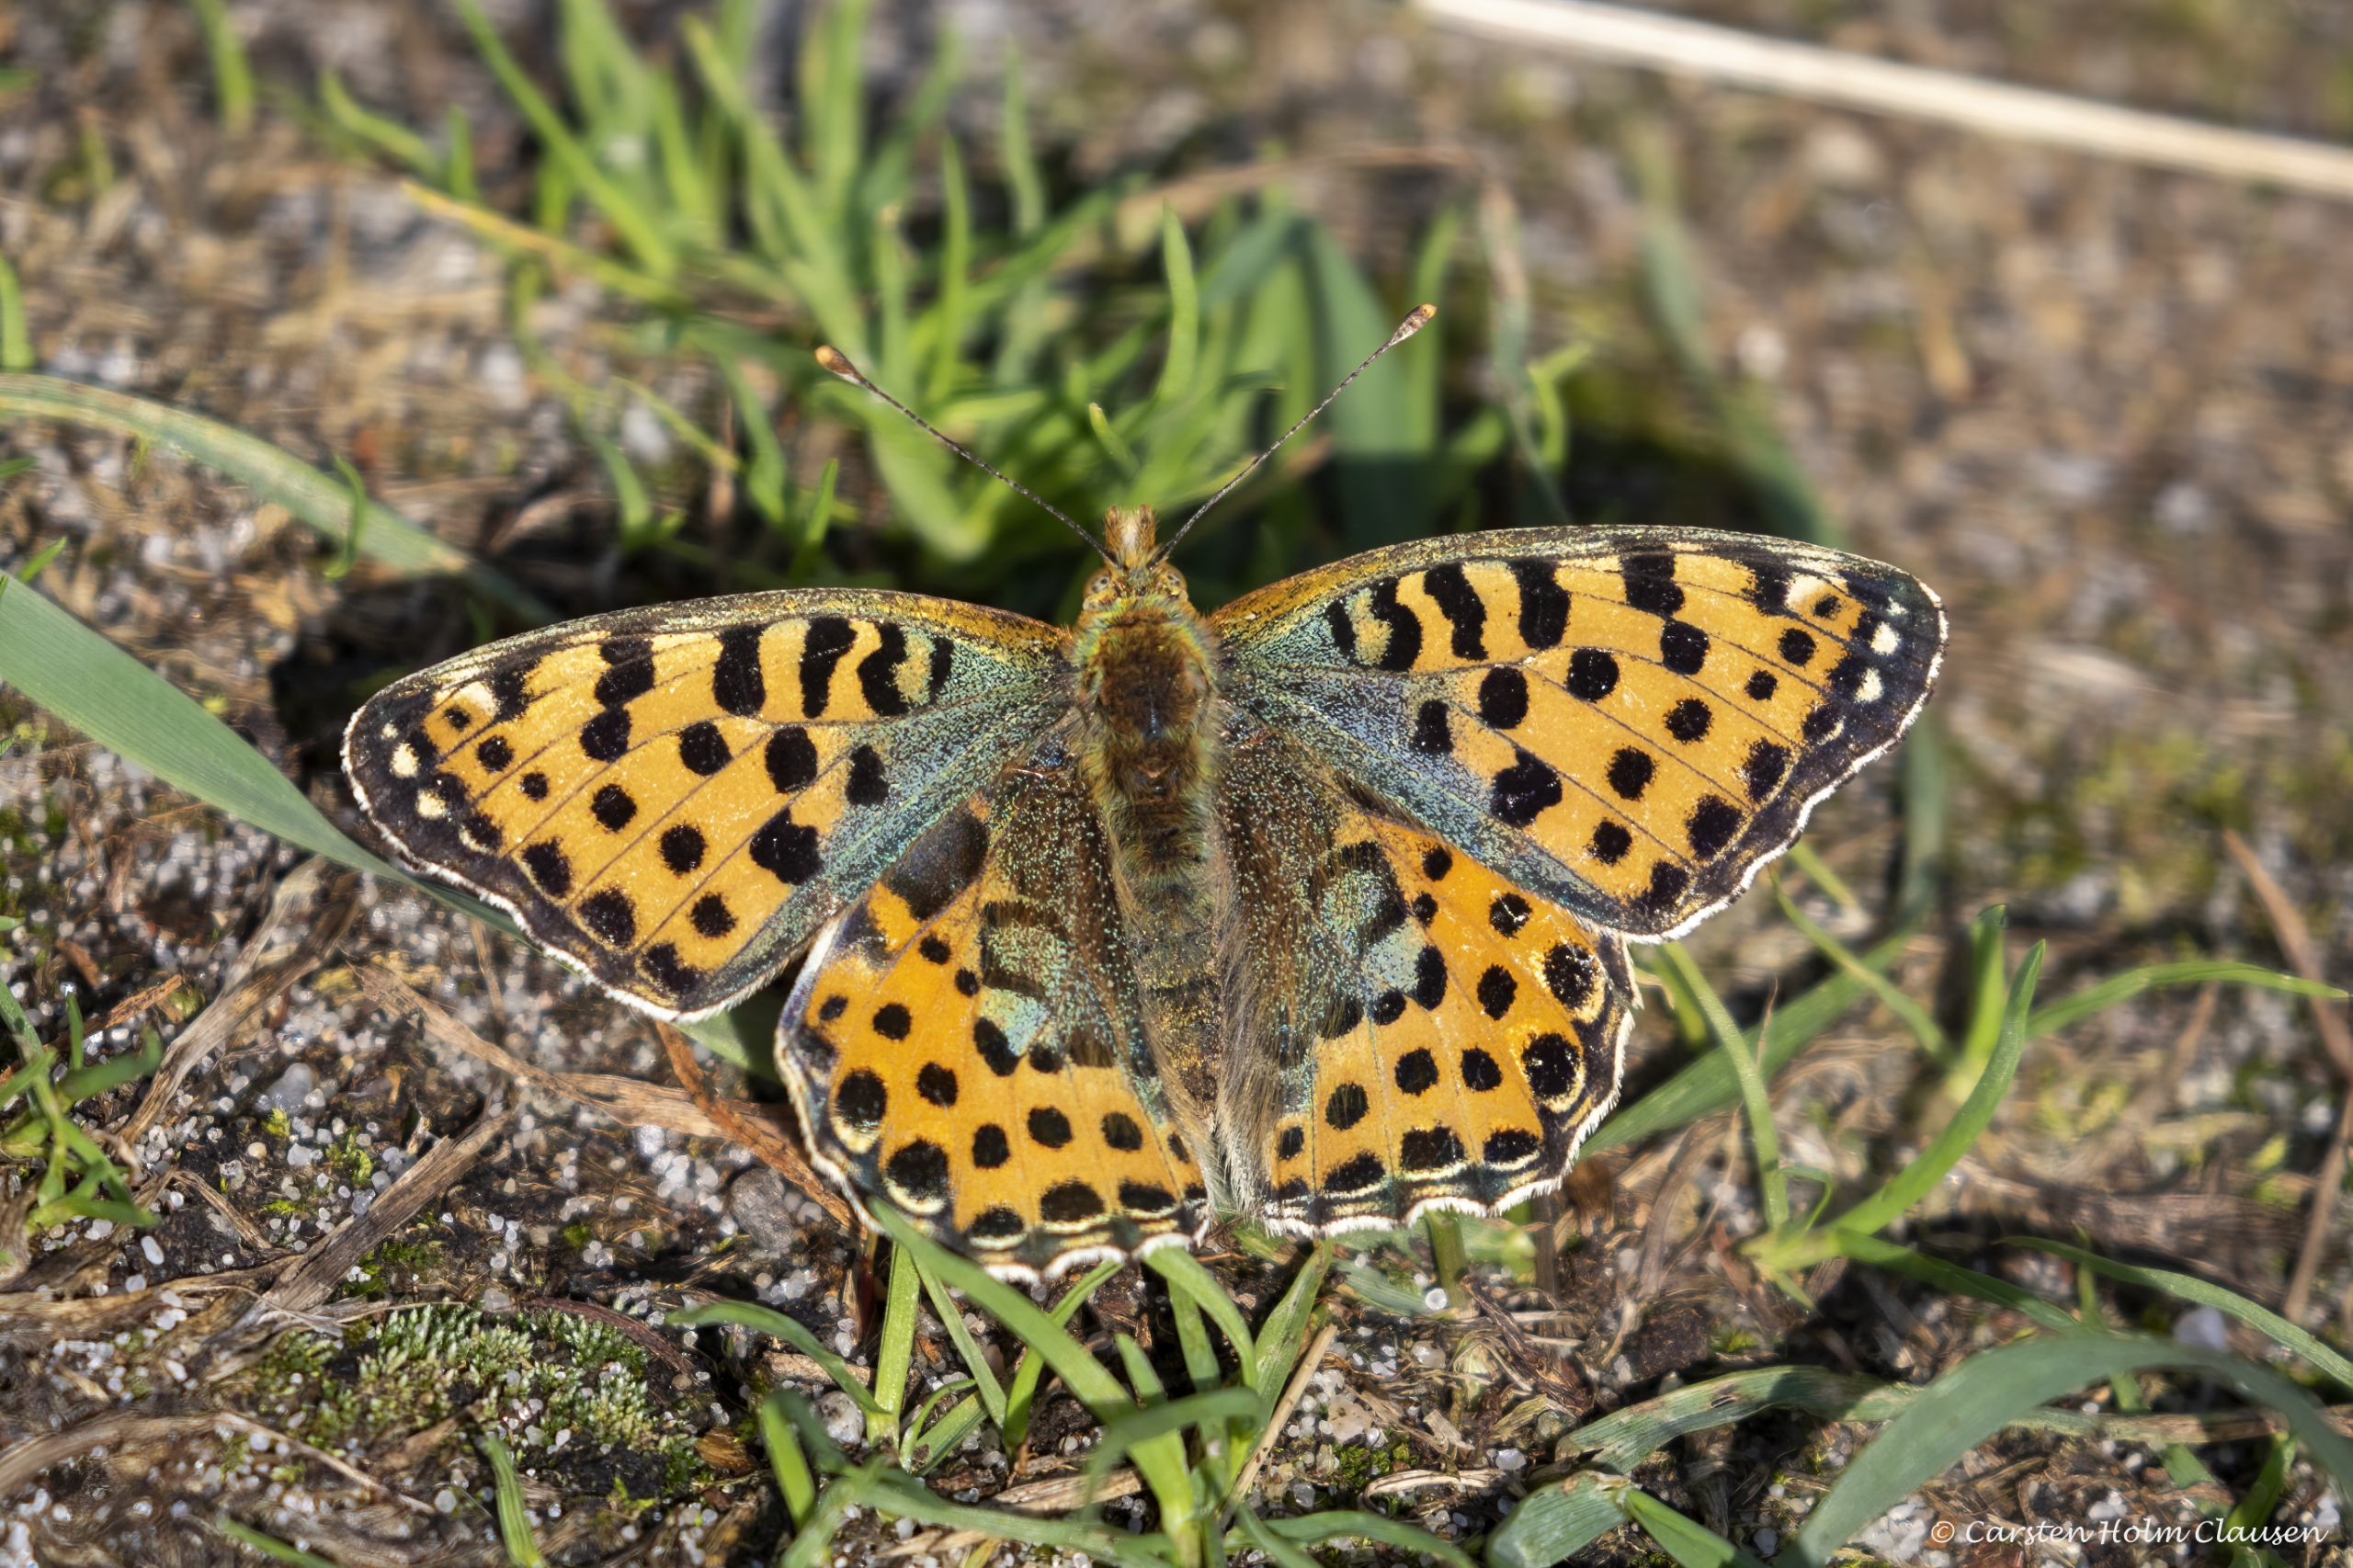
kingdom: Animalia
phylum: Arthropoda
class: Insecta
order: Lepidoptera
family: Nymphalidae
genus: Issoria
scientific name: Issoria lathonia
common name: Storplettet perlemorsommerfugl
